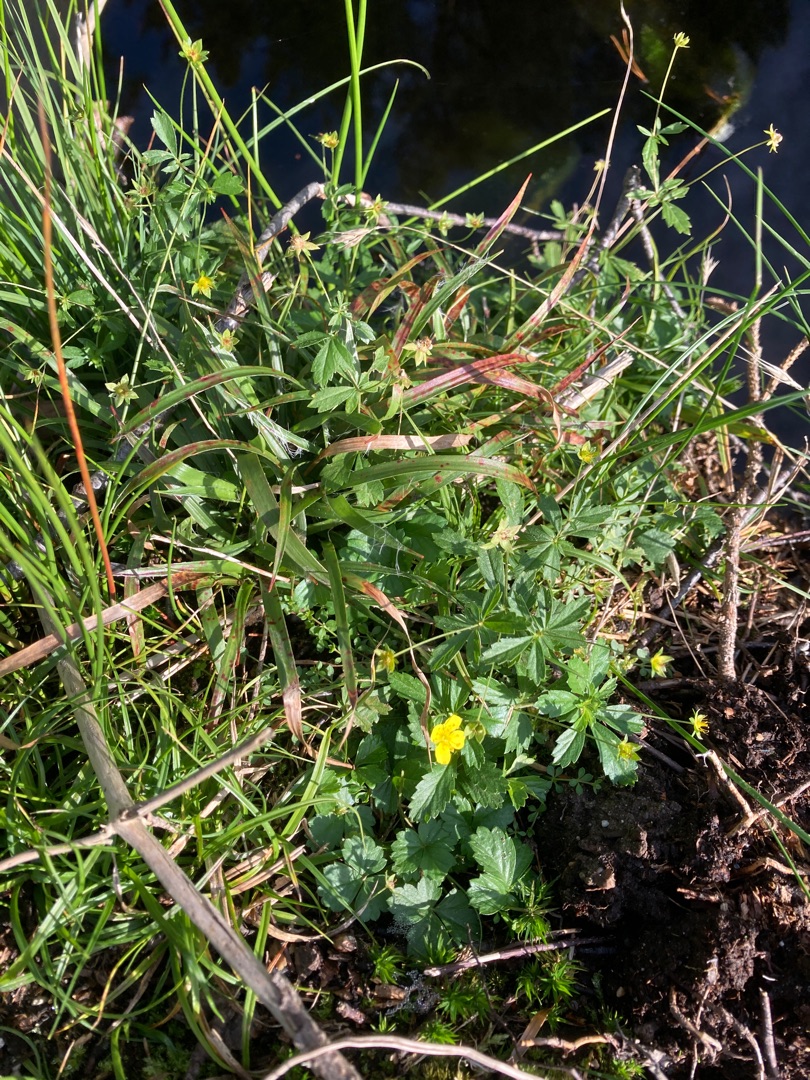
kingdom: Plantae
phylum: Tracheophyta
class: Magnoliopsida
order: Rosales
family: Rosaceae
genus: Potentilla
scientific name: Potentilla erecta
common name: Tormentil
